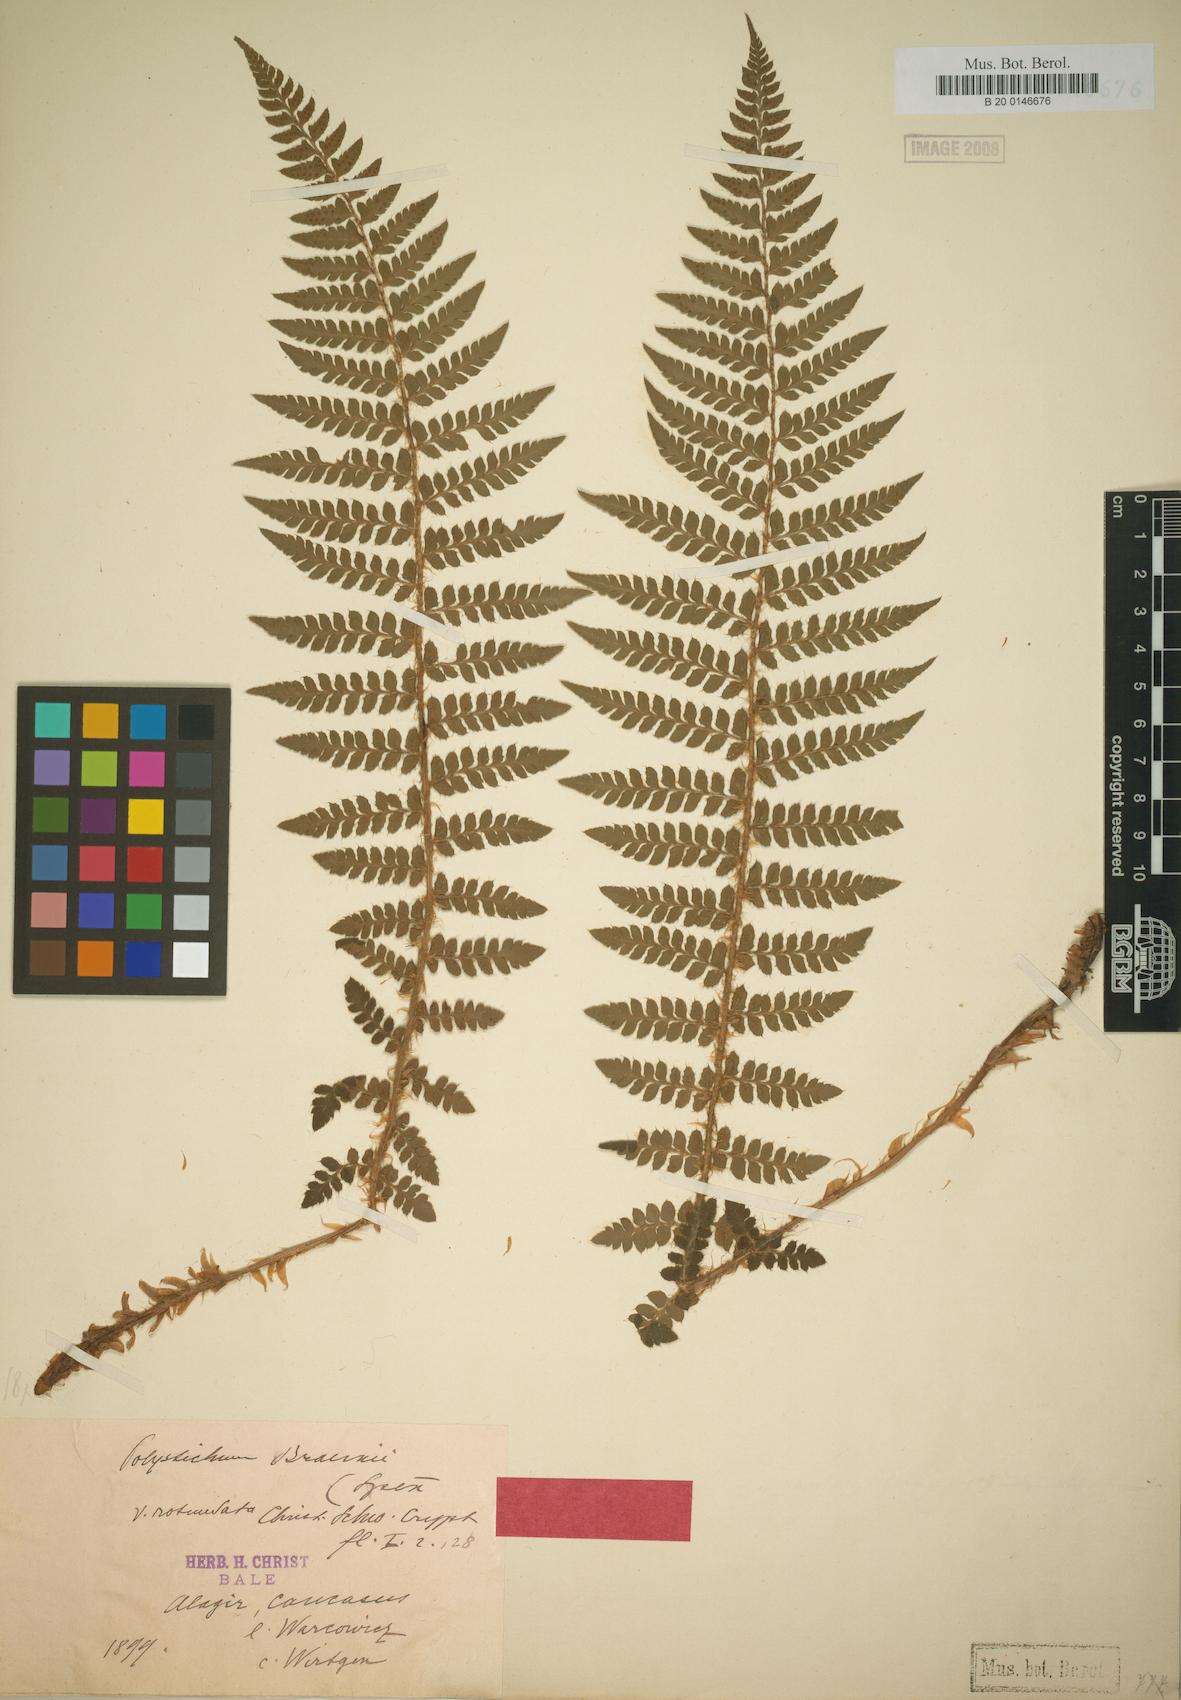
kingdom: Plantae
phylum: Tracheophyta
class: Polypodiopsida
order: Polypodiales
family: Dryopteridaceae
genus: Polystichum
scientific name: Polystichum braunii
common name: Braun's holly fern
